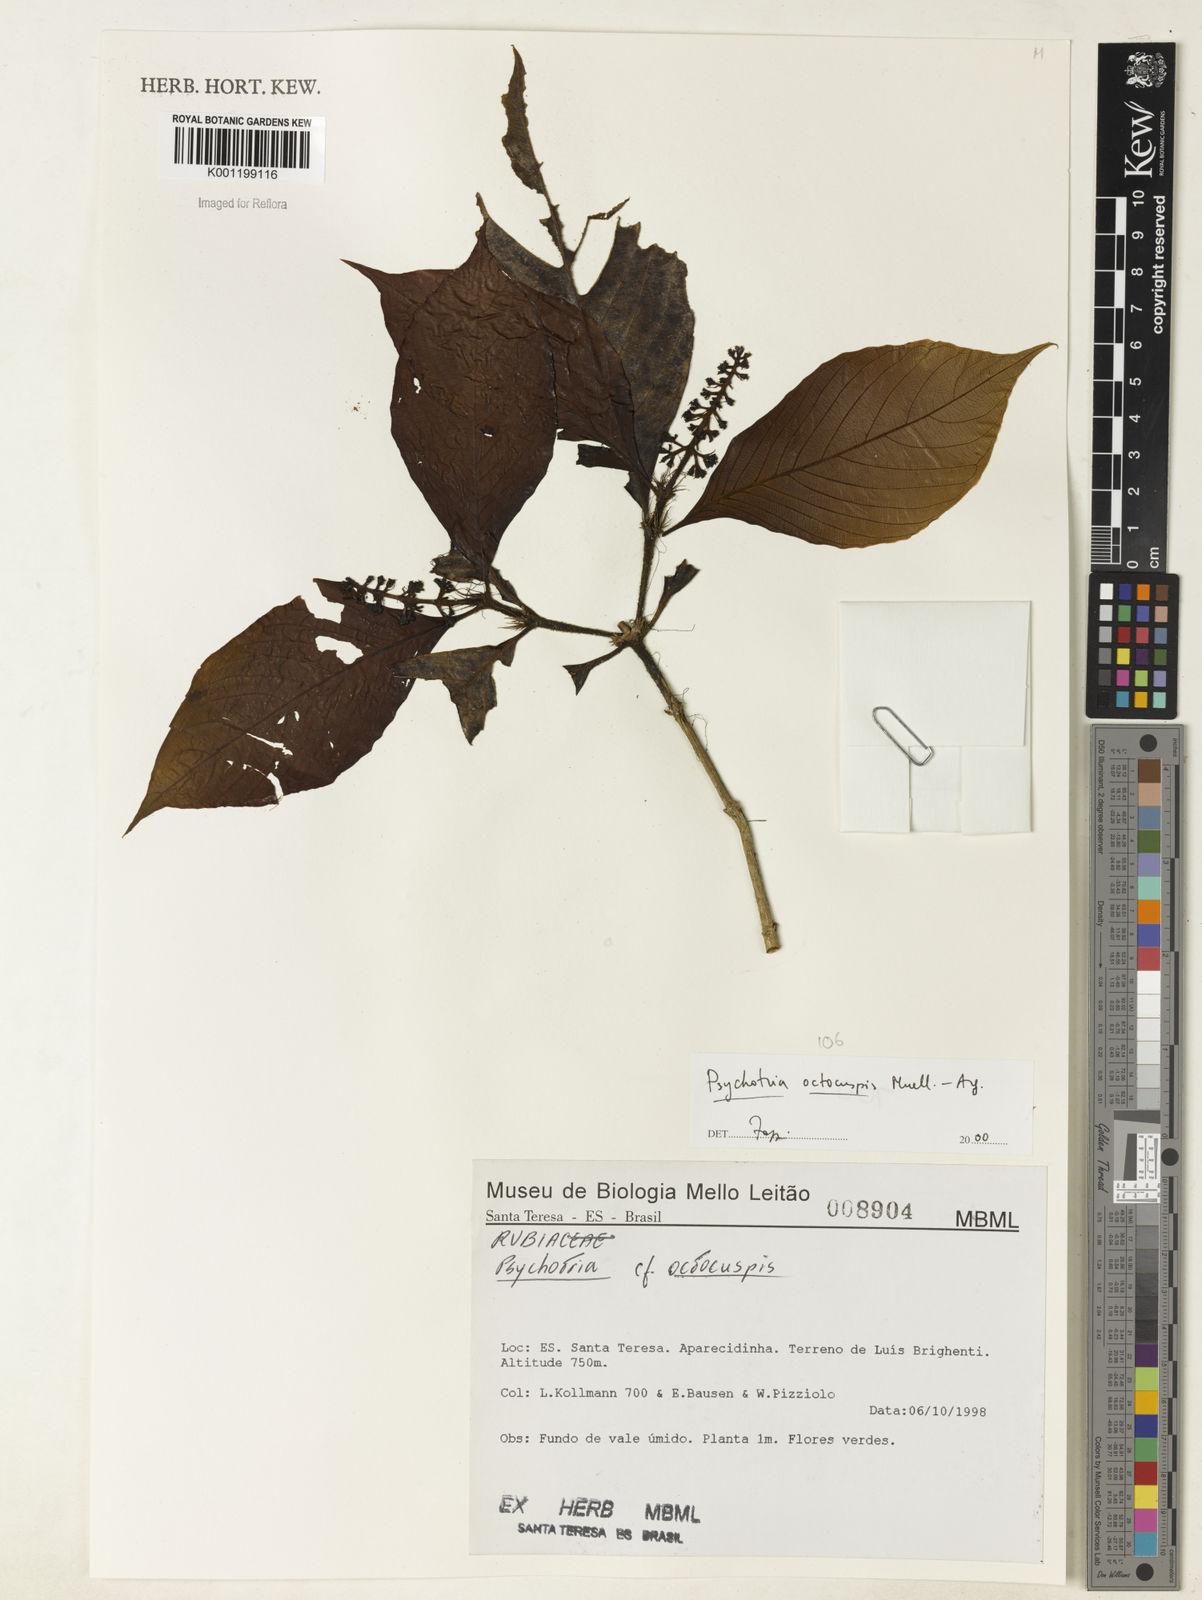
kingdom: Plantae
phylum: Tracheophyta
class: Magnoliopsida
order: Gentianales
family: Rubiaceae
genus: Psychotria
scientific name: Psychotria
